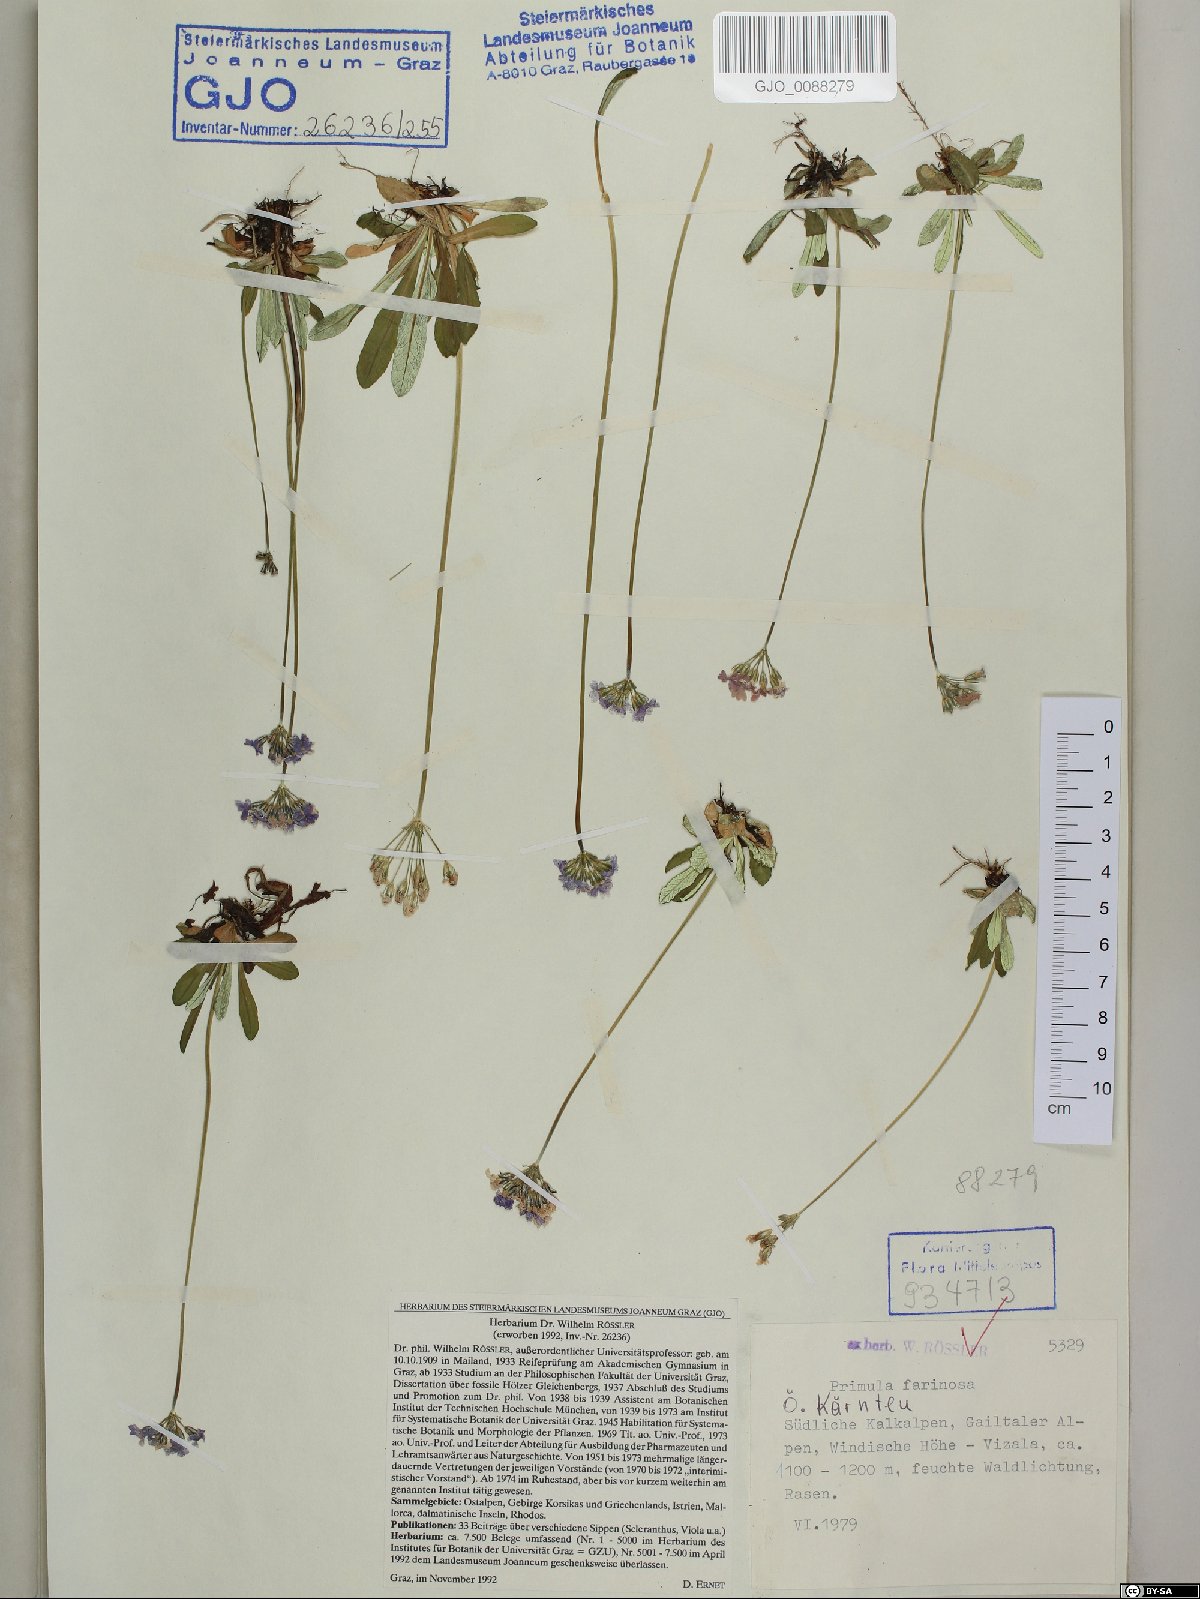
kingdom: Plantae
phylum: Tracheophyta
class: Magnoliopsida
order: Ericales
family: Primulaceae
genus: Primula
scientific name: Primula farinosa
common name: Bird's-eye primrose
